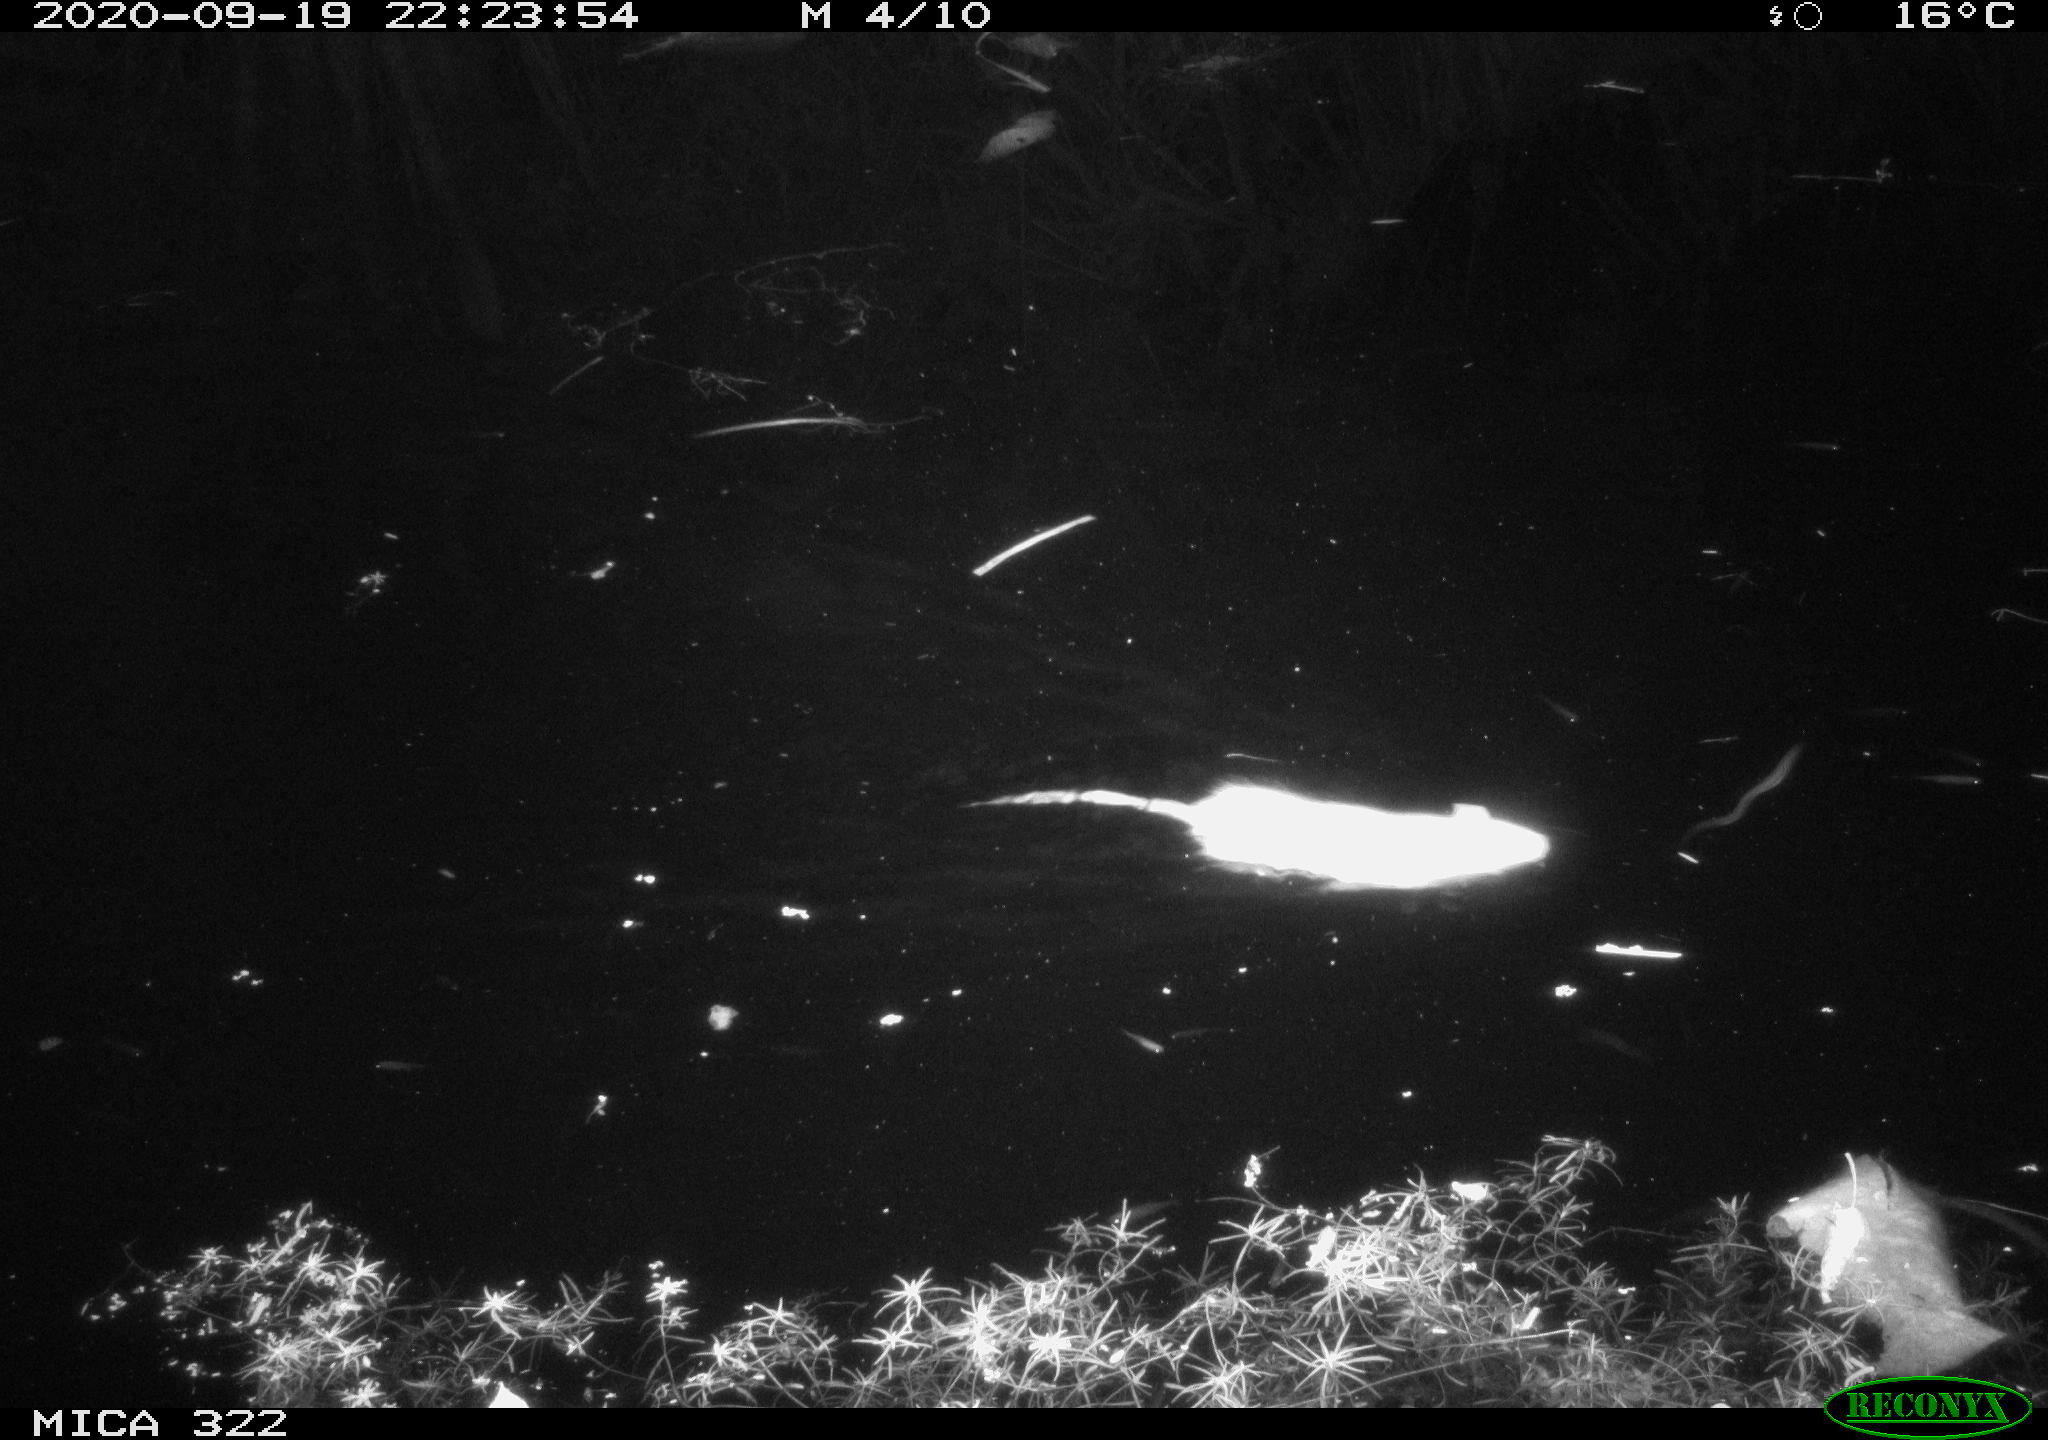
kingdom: Animalia
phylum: Chordata
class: Mammalia
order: Rodentia
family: Muridae
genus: Rattus
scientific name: Rattus norvegicus
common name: Brown rat
